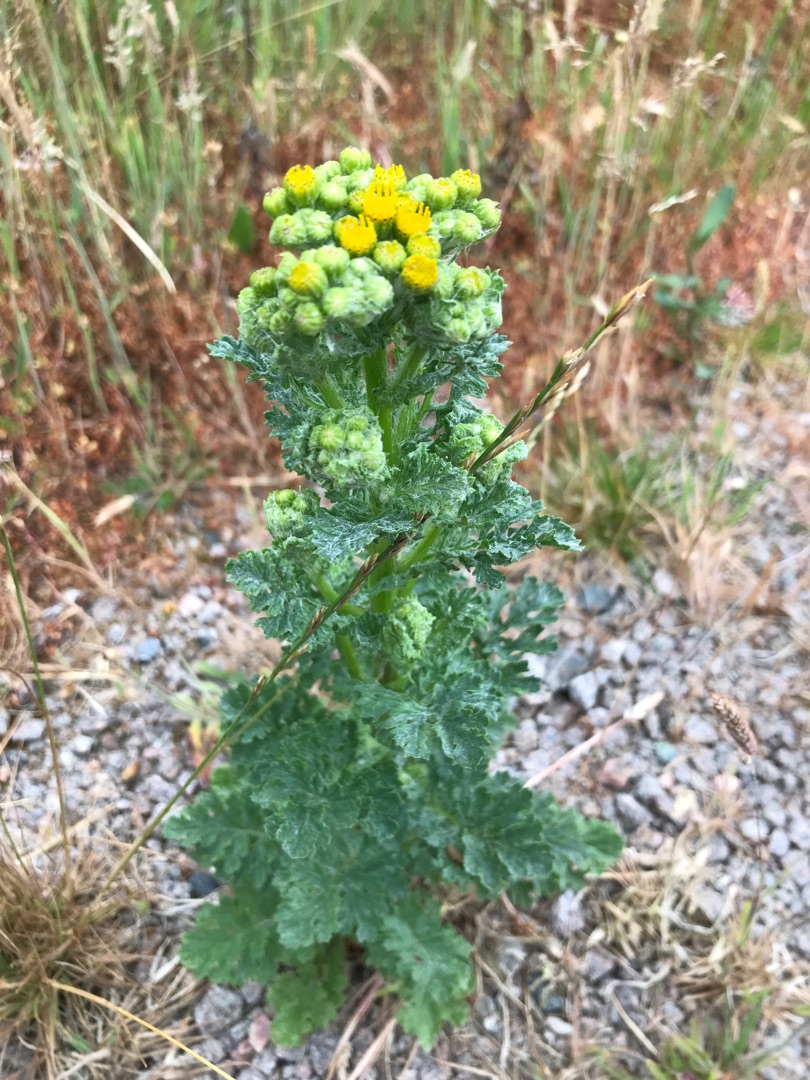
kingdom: Plantae
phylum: Tracheophyta
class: Magnoliopsida
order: Asterales
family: Asteraceae
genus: Jacobaea
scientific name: Jacobaea vulgaris
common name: Eng-brandbæger
